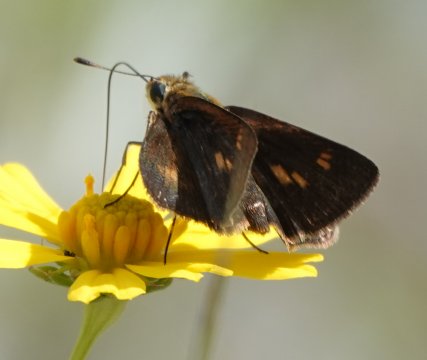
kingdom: Animalia
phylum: Arthropoda
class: Insecta
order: Lepidoptera
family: Hesperiidae
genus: Polites
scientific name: Polites egeremet
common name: Northern Broken-Dash
